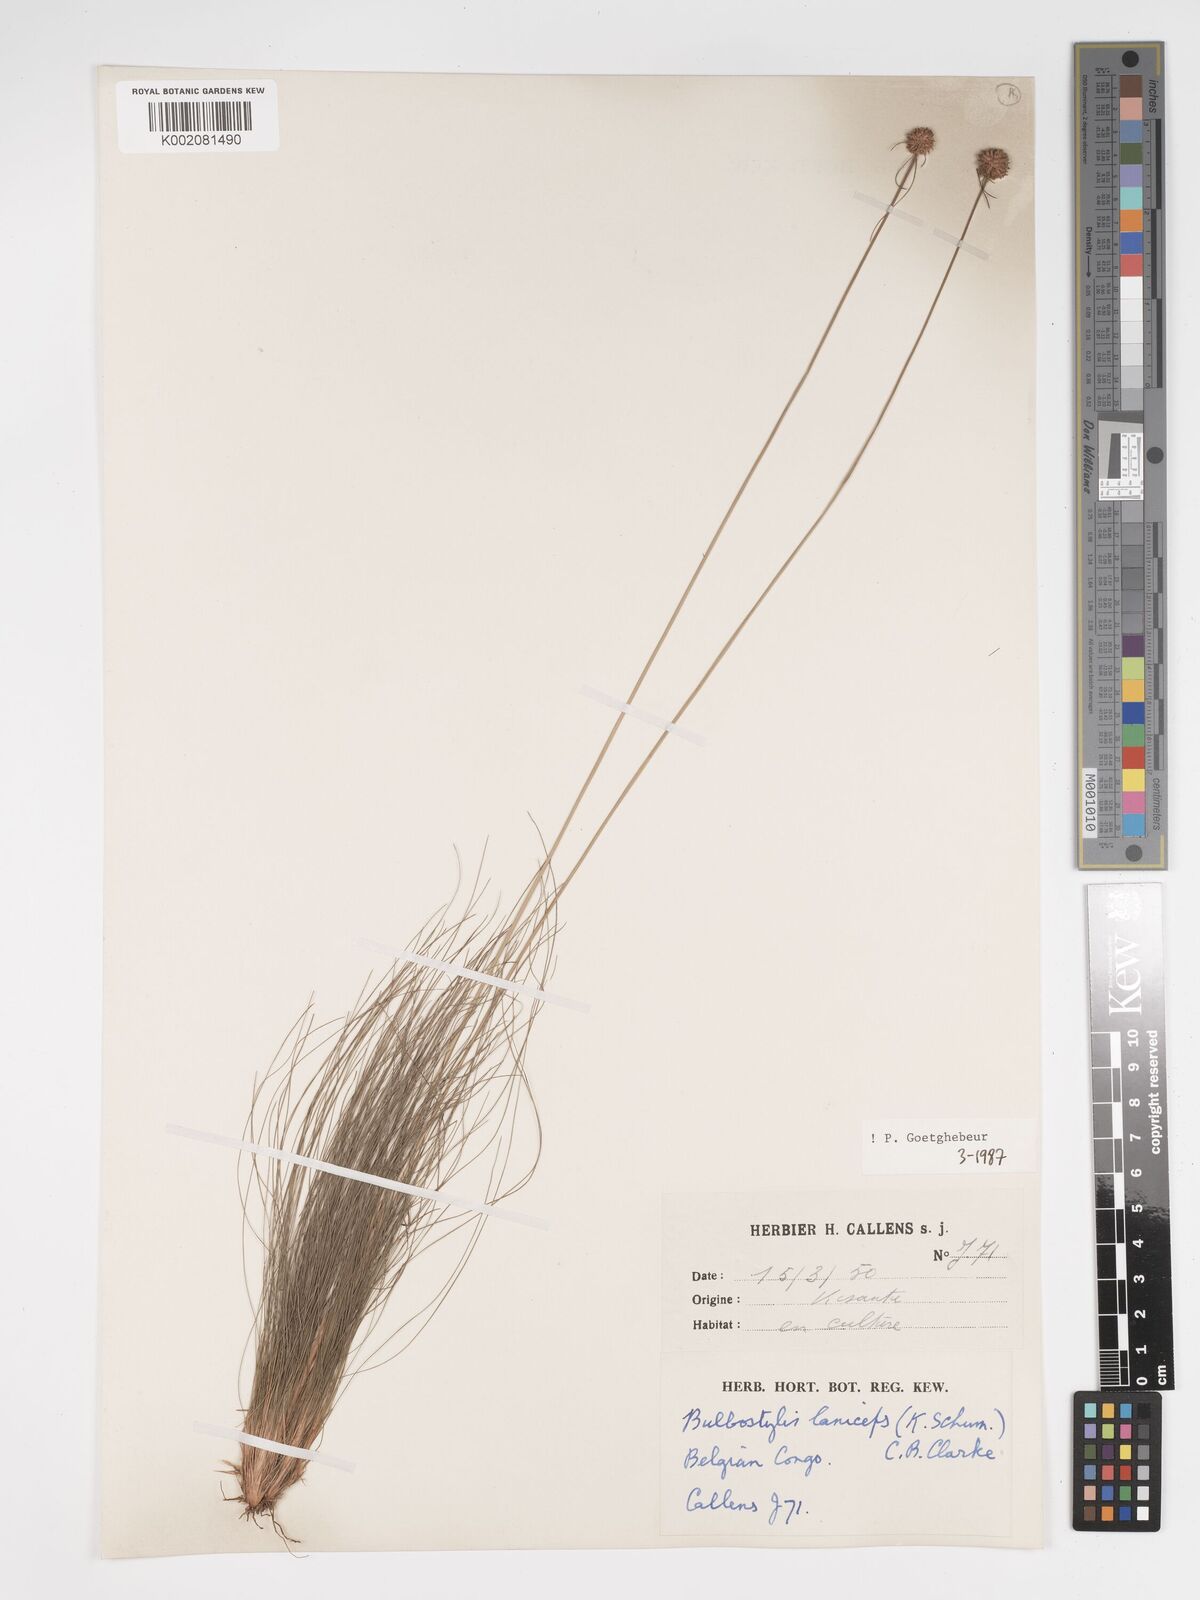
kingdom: Plantae
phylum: Tracheophyta
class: Liliopsida
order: Poales
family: Cyperaceae
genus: Bulbostylis
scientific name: Bulbostylis laniceps
